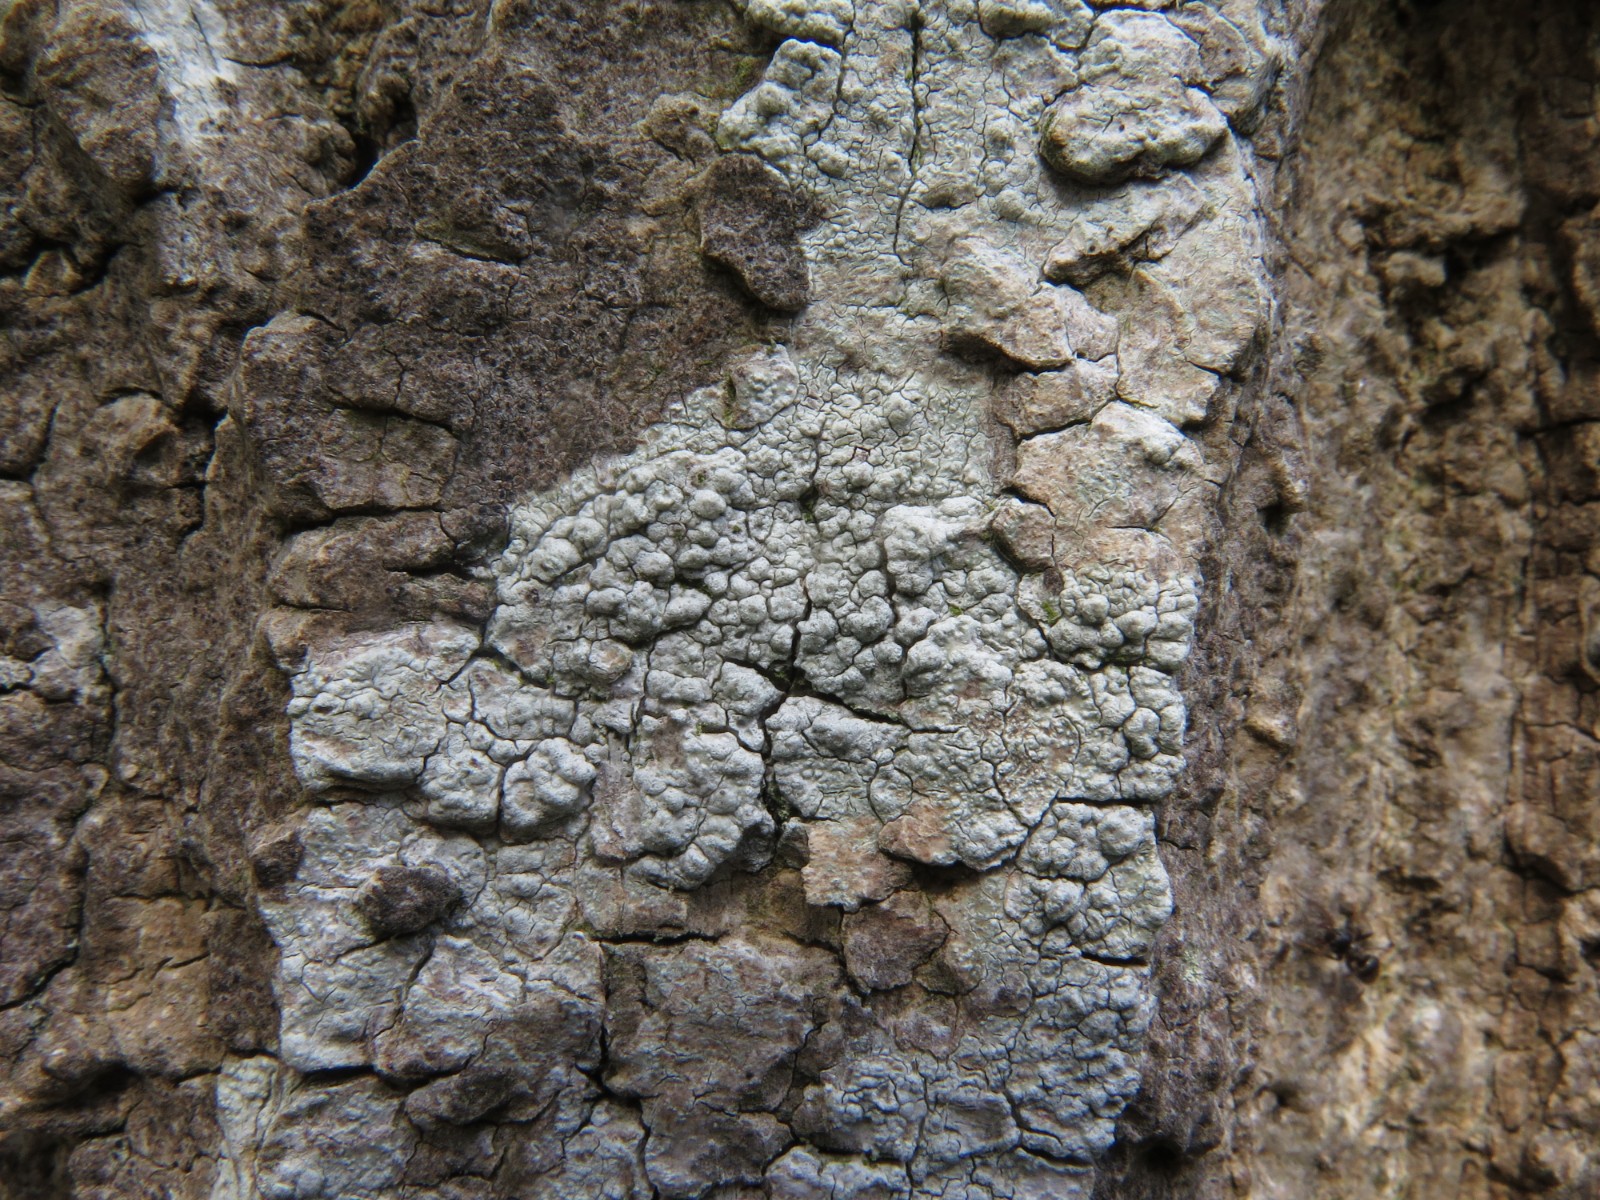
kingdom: Fungi
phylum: Ascomycota
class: Lecanoromycetes
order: Pertusariales
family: Pertusariaceae
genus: Pertusaria
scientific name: Pertusaria pertusa
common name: almindelig prikvortelav
